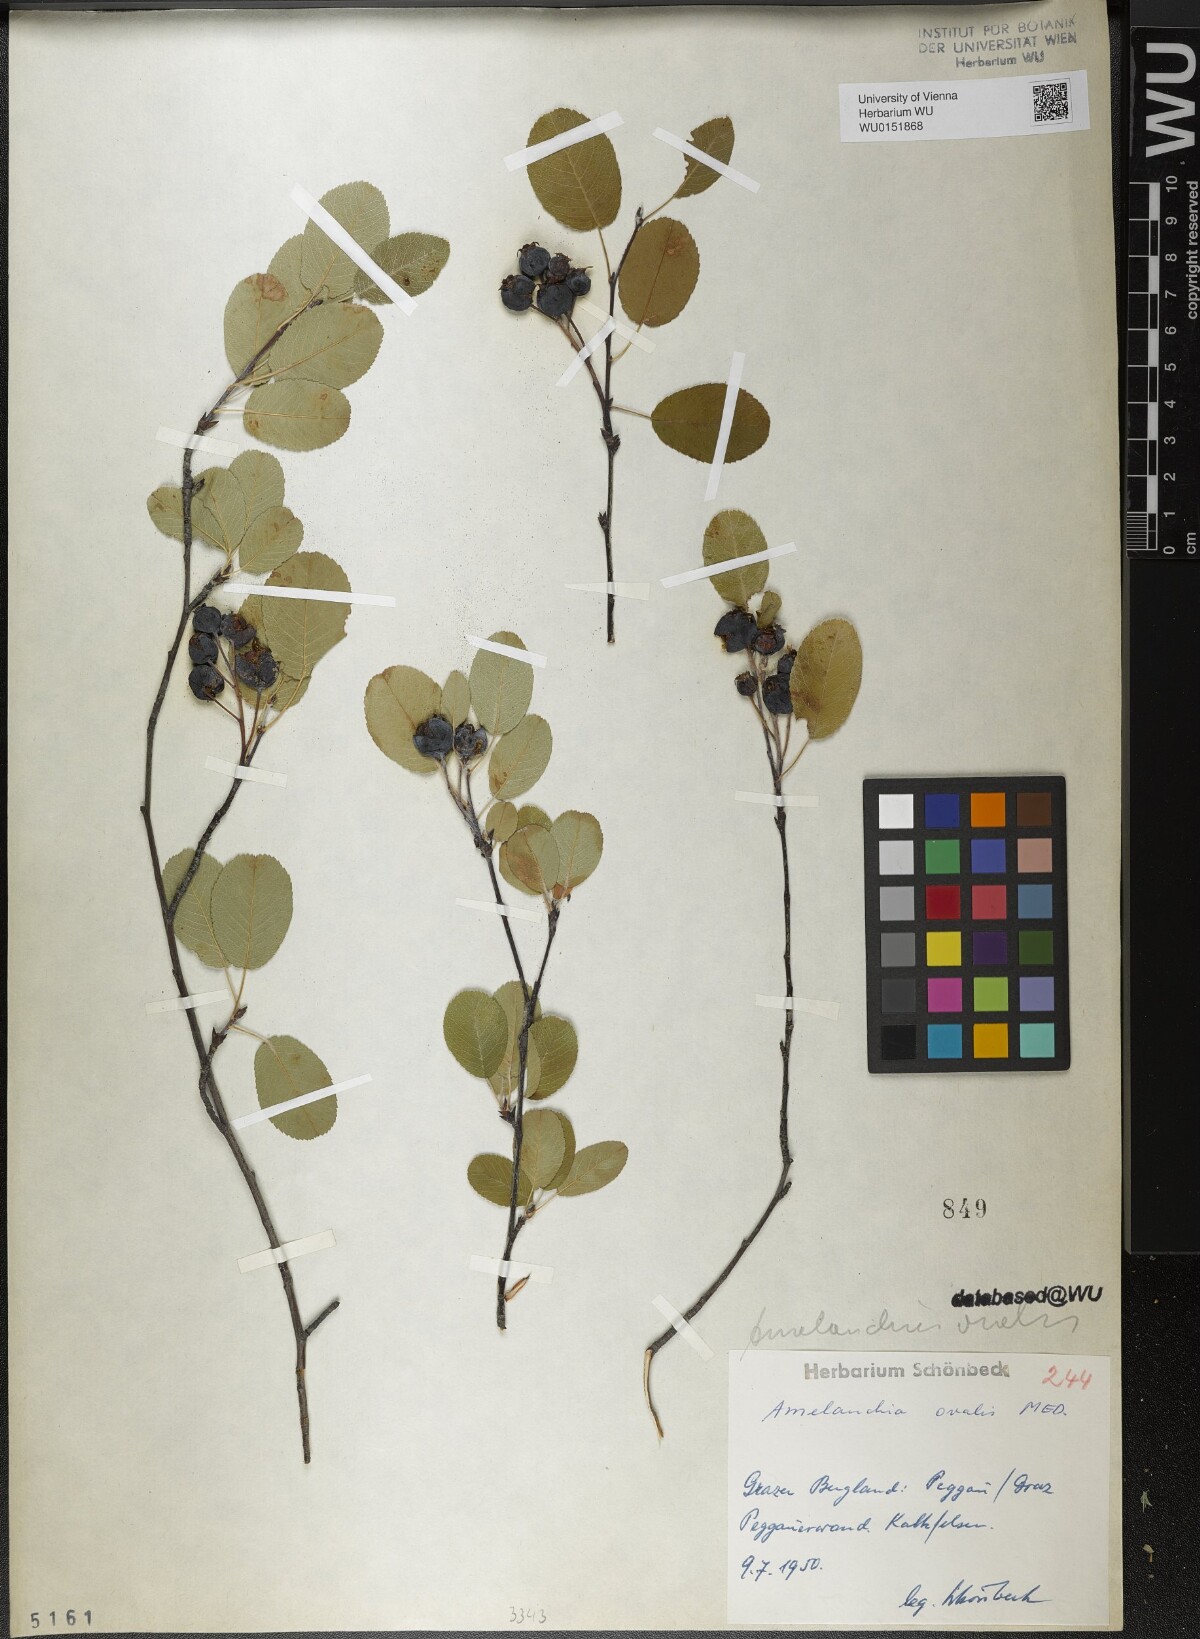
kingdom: Plantae
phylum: Tracheophyta
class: Magnoliopsida
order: Rosales
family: Rosaceae
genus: Amelanchier
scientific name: Amelanchier ovalis
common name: Serviceberry
